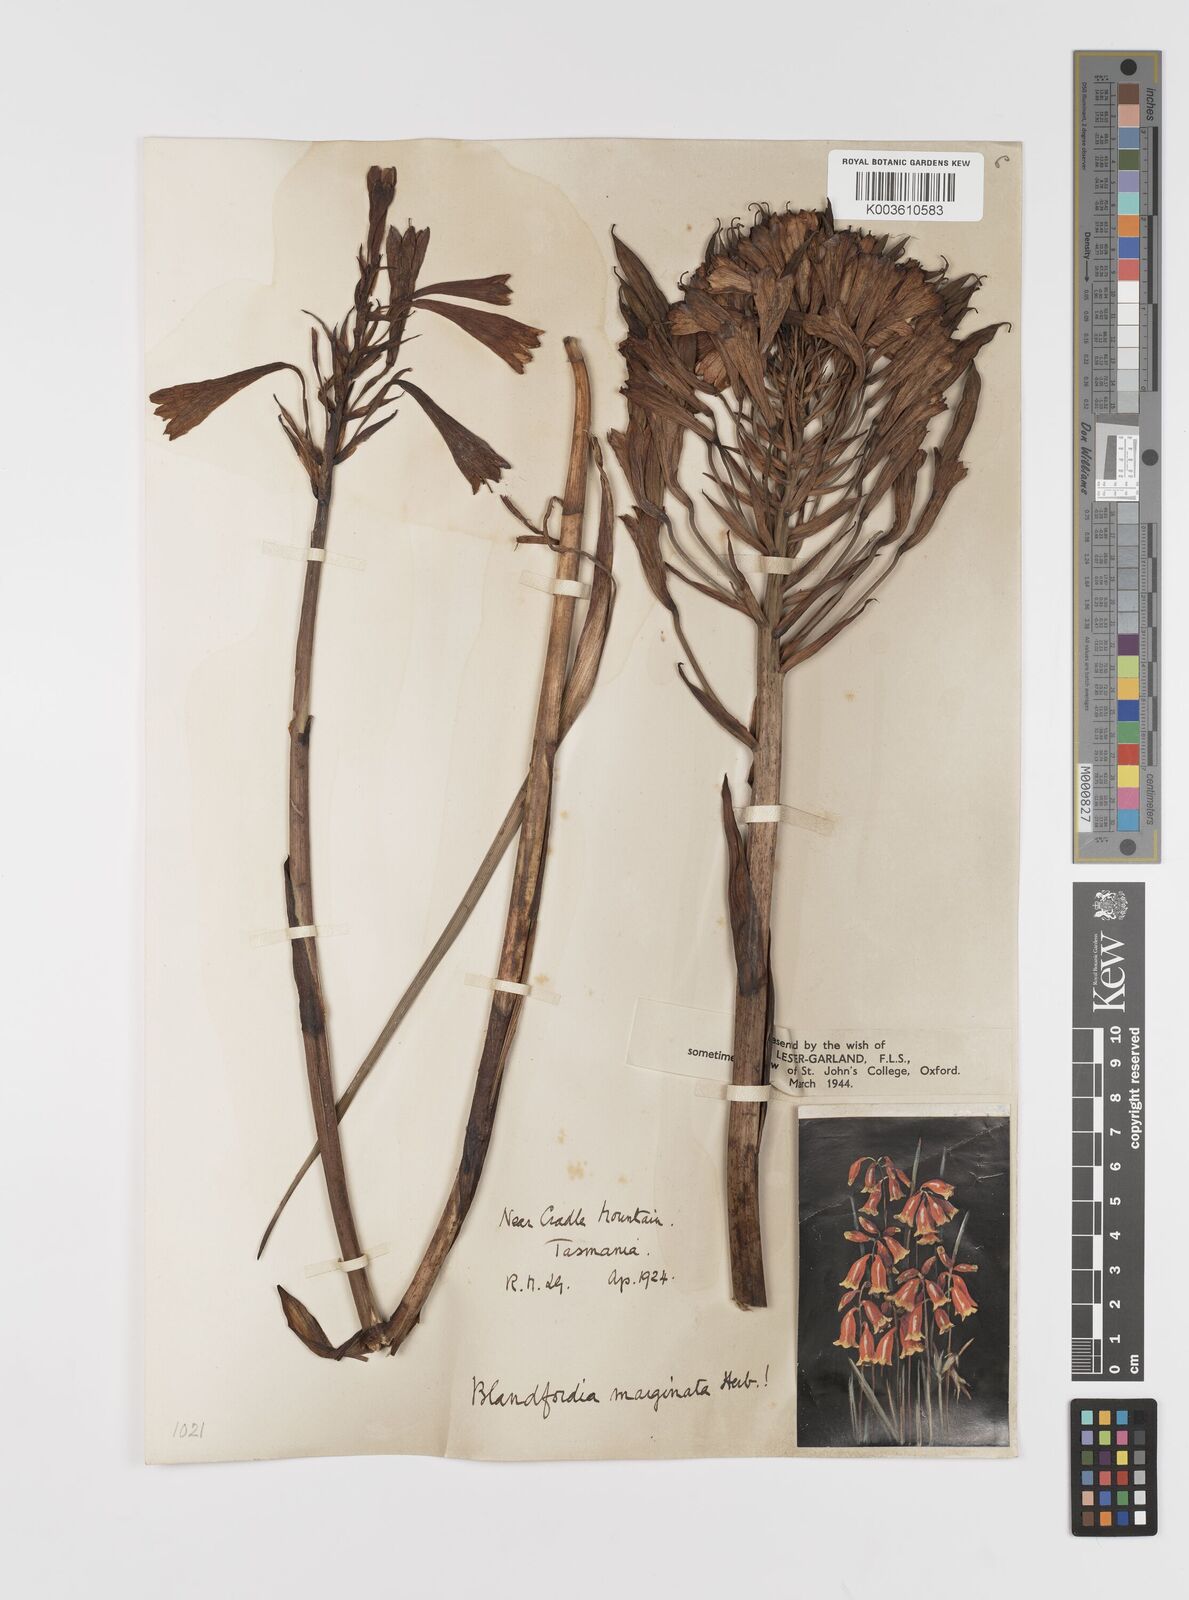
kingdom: Plantae
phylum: Tracheophyta
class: Liliopsida
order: Asparagales
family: Blandfordiaceae
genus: Blandfordia
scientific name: Blandfordia punicea
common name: Tasmanian christmas-bell
